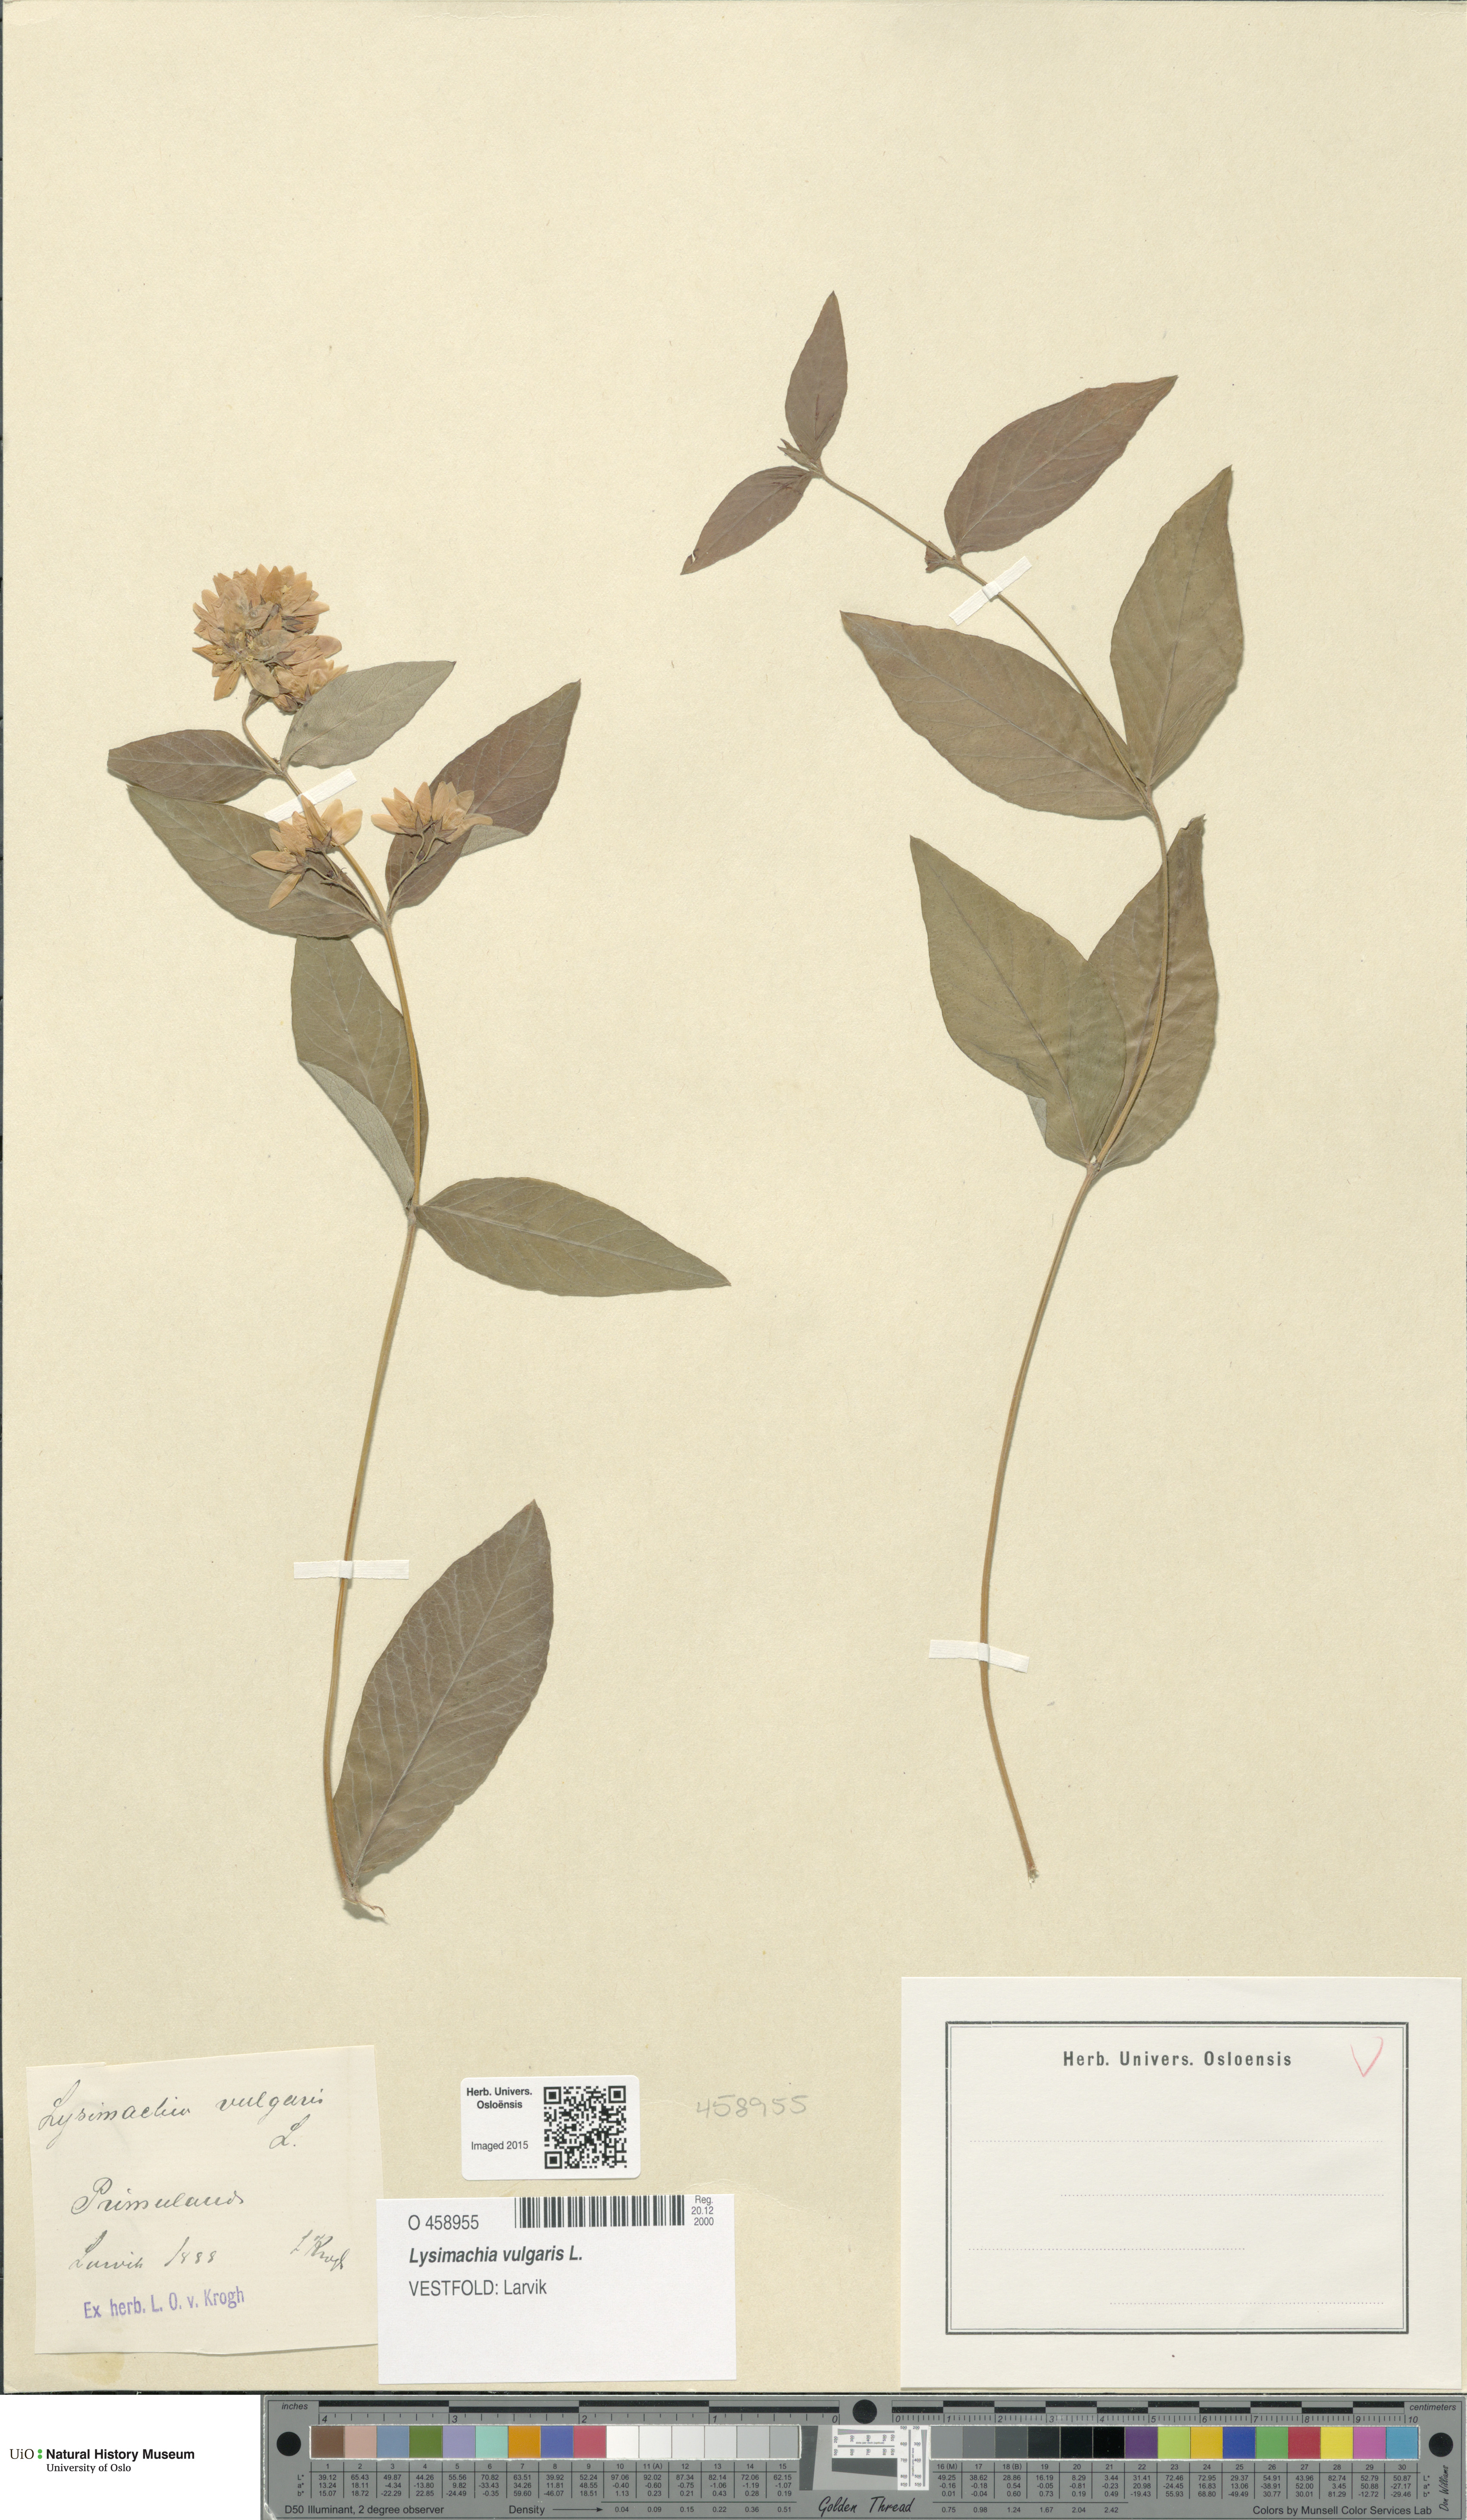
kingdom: Plantae
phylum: Tracheophyta
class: Magnoliopsida
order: Ericales
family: Primulaceae
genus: Lysimachia
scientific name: Lysimachia vulgaris
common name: Yellow loosestrife
